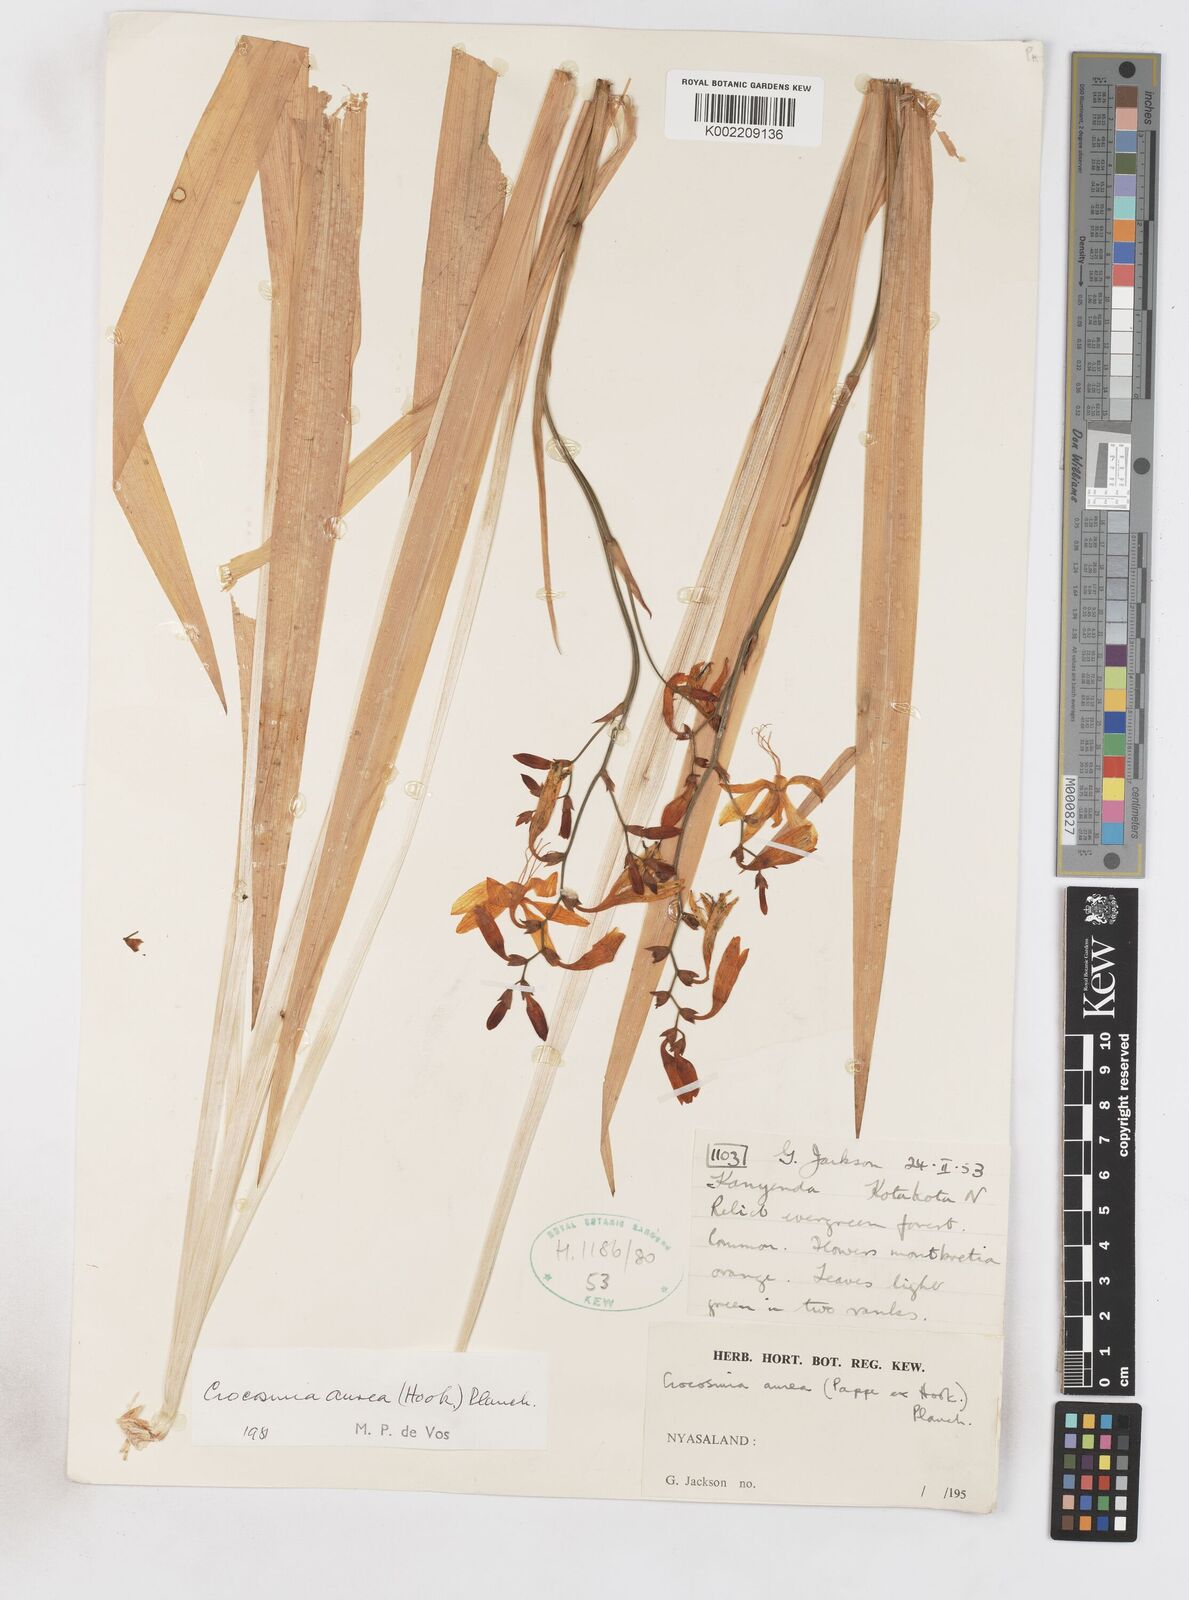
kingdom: Plantae
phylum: Tracheophyta
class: Liliopsida
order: Asparagales
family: Iridaceae
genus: Crocosmia
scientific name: Crocosmia aurea
